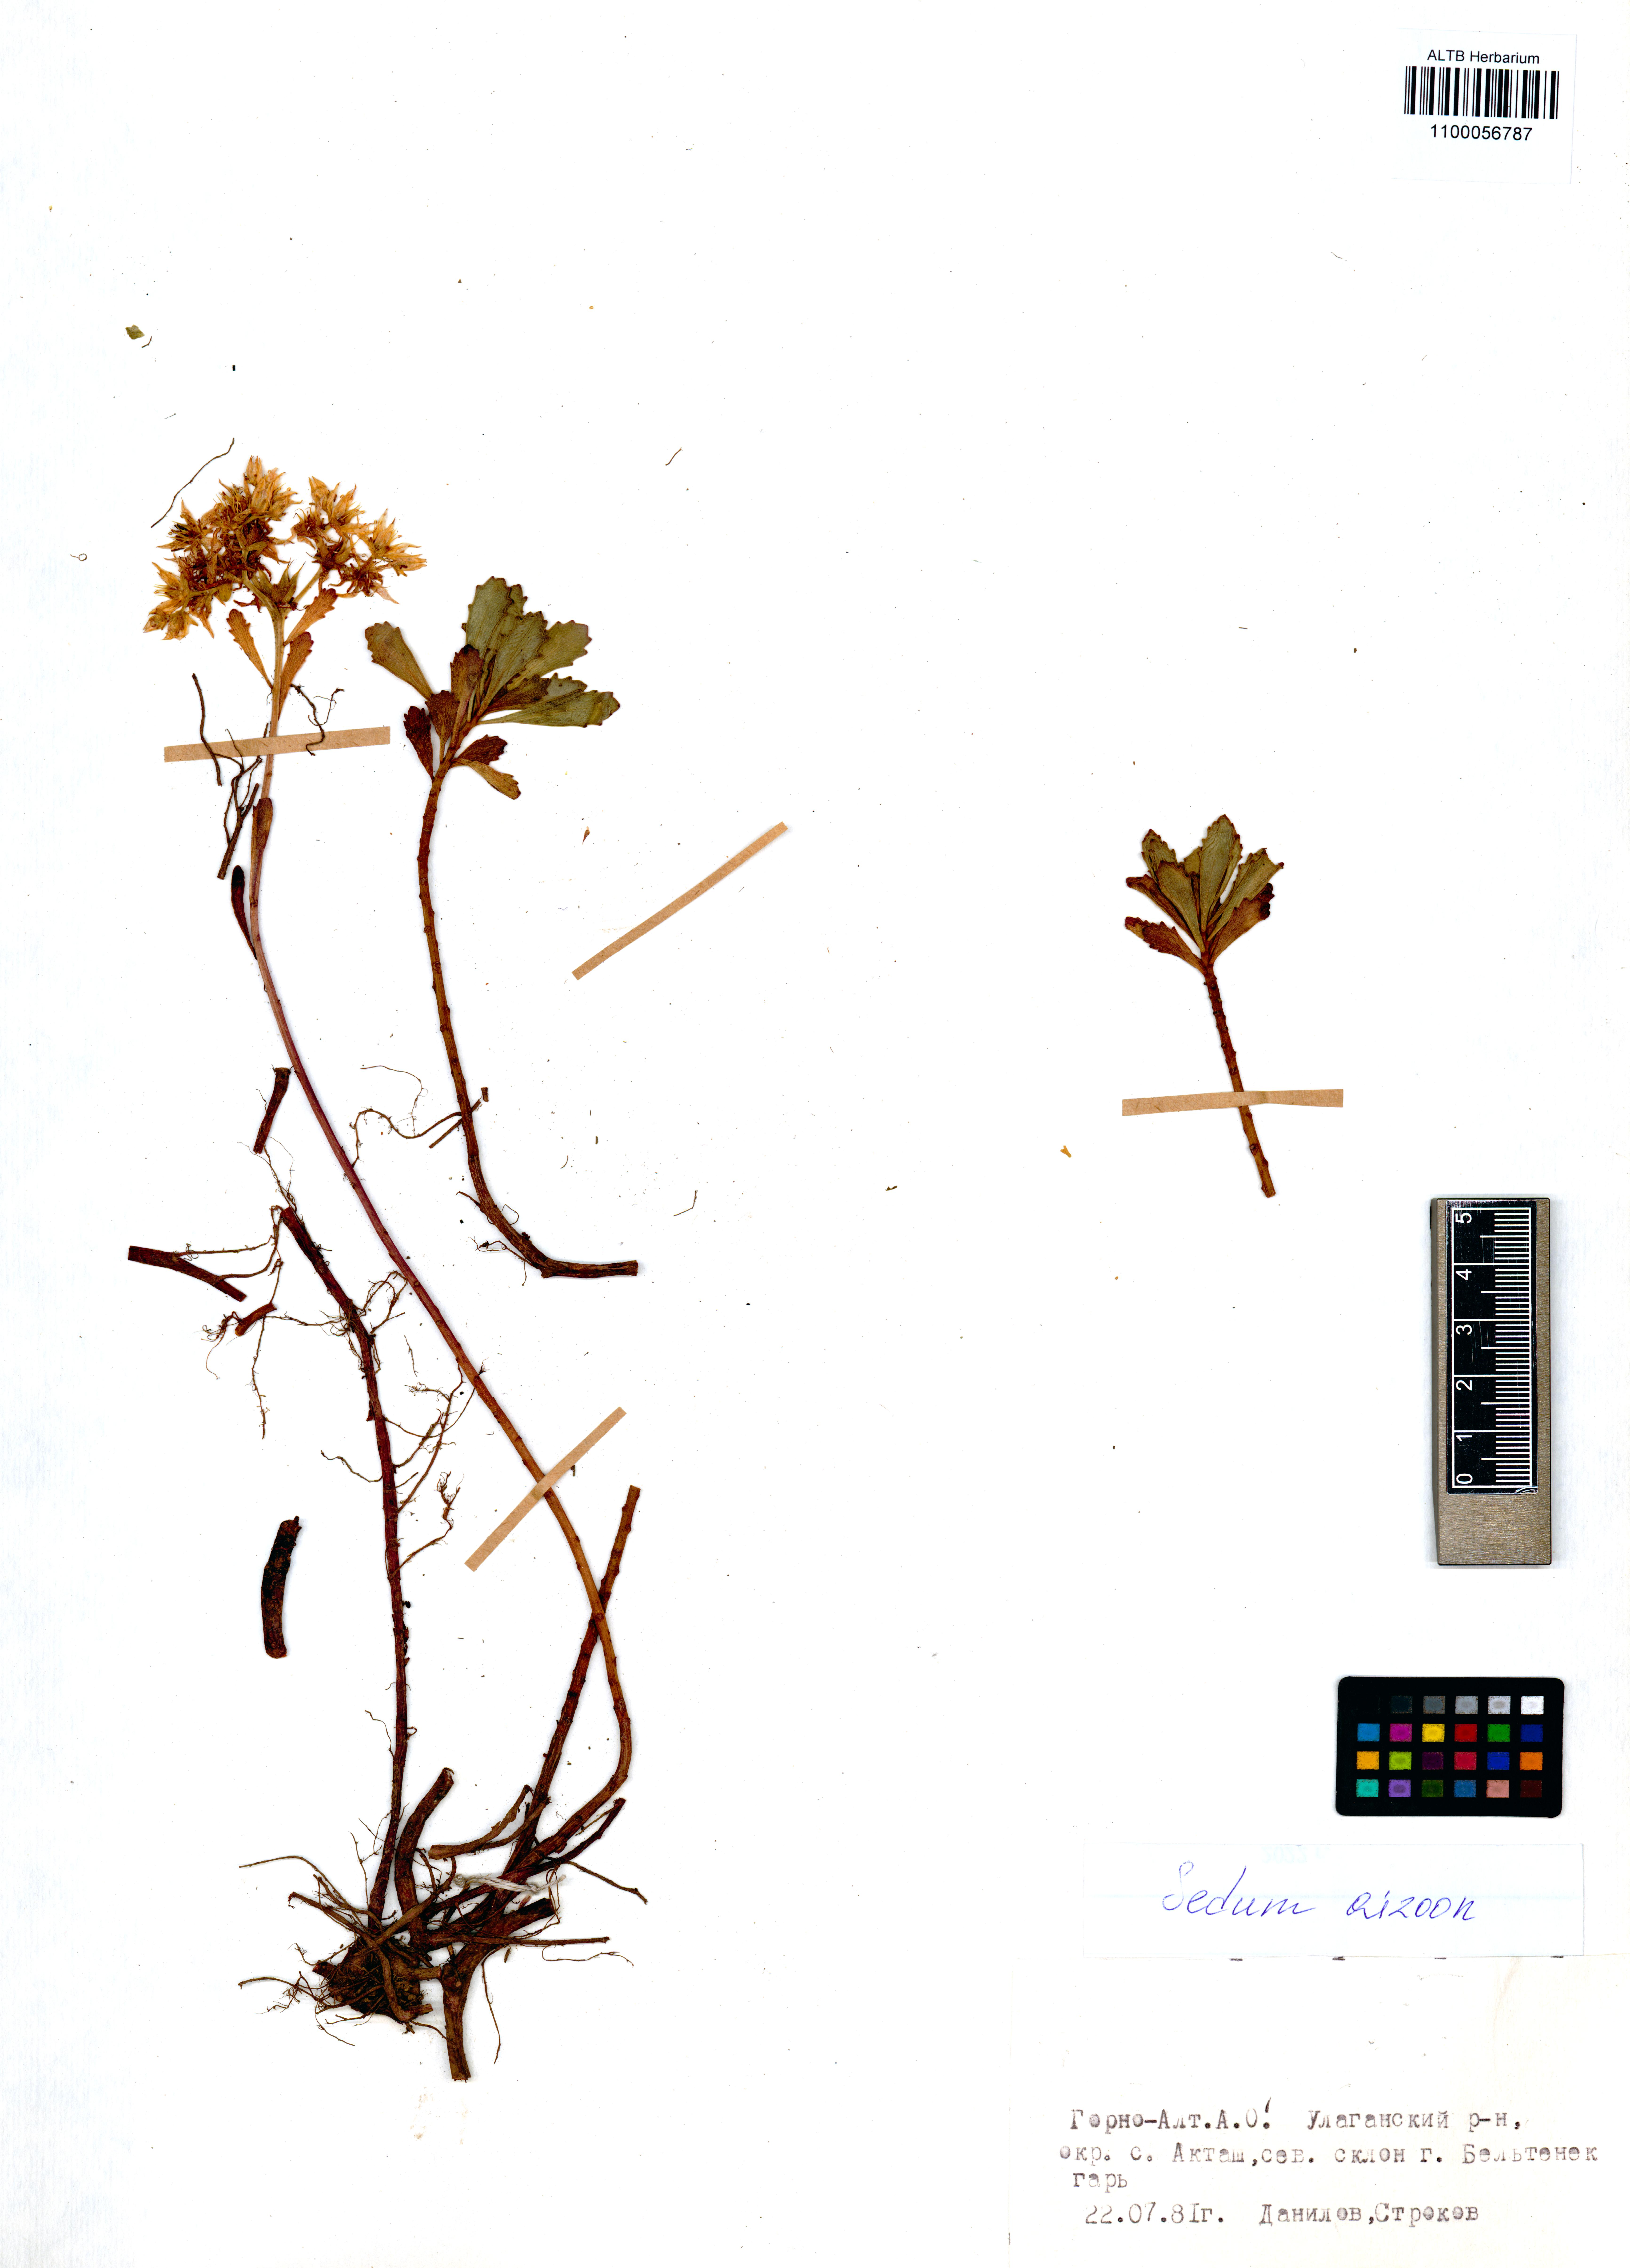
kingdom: Plantae
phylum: Tracheophyta
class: Magnoliopsida
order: Saxifragales
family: Crassulaceae
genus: Phedimus
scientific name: Phedimus aizoon
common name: Orpin aizoon
